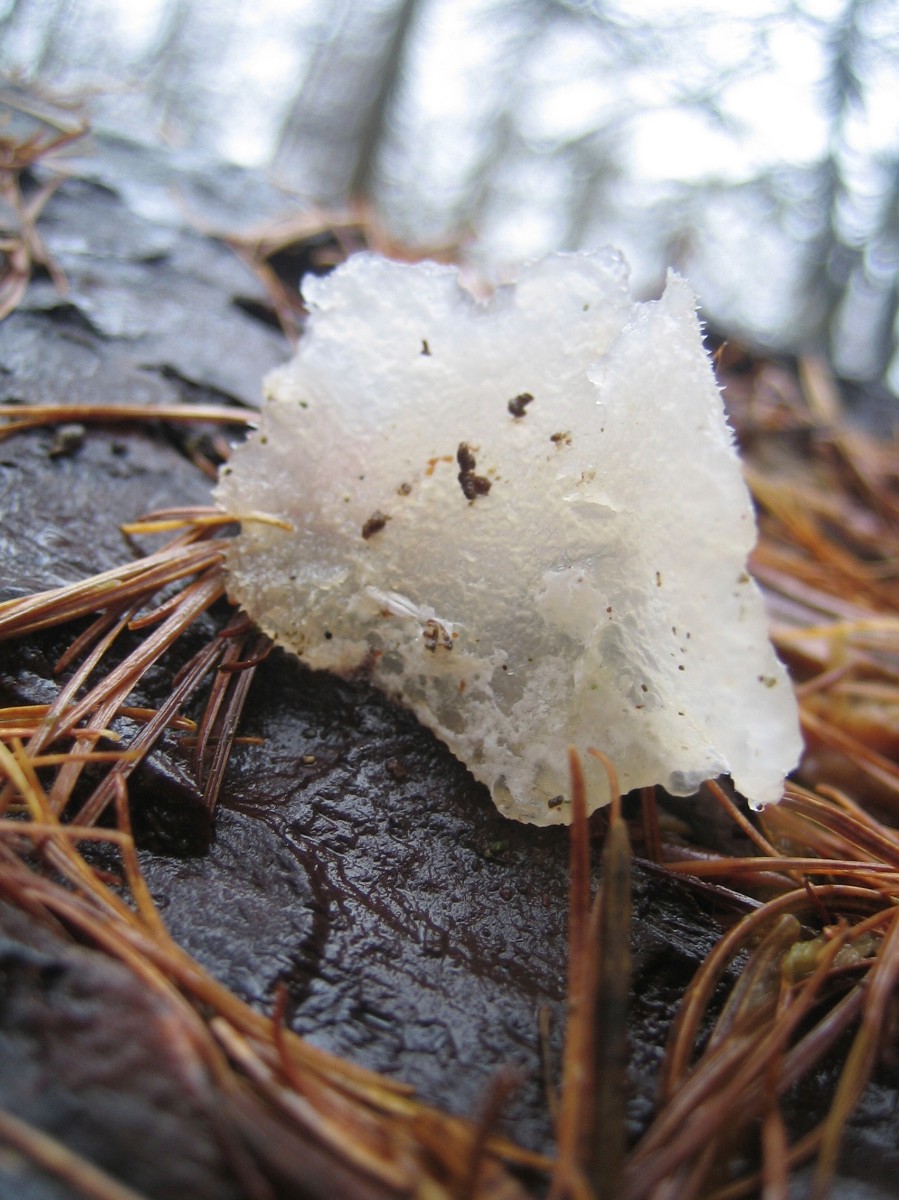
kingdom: Fungi
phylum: Basidiomycota
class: Agaricomycetes
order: Auriculariales
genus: Pseudohydnum
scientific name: Pseudohydnum gelatinosum
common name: bævretand
